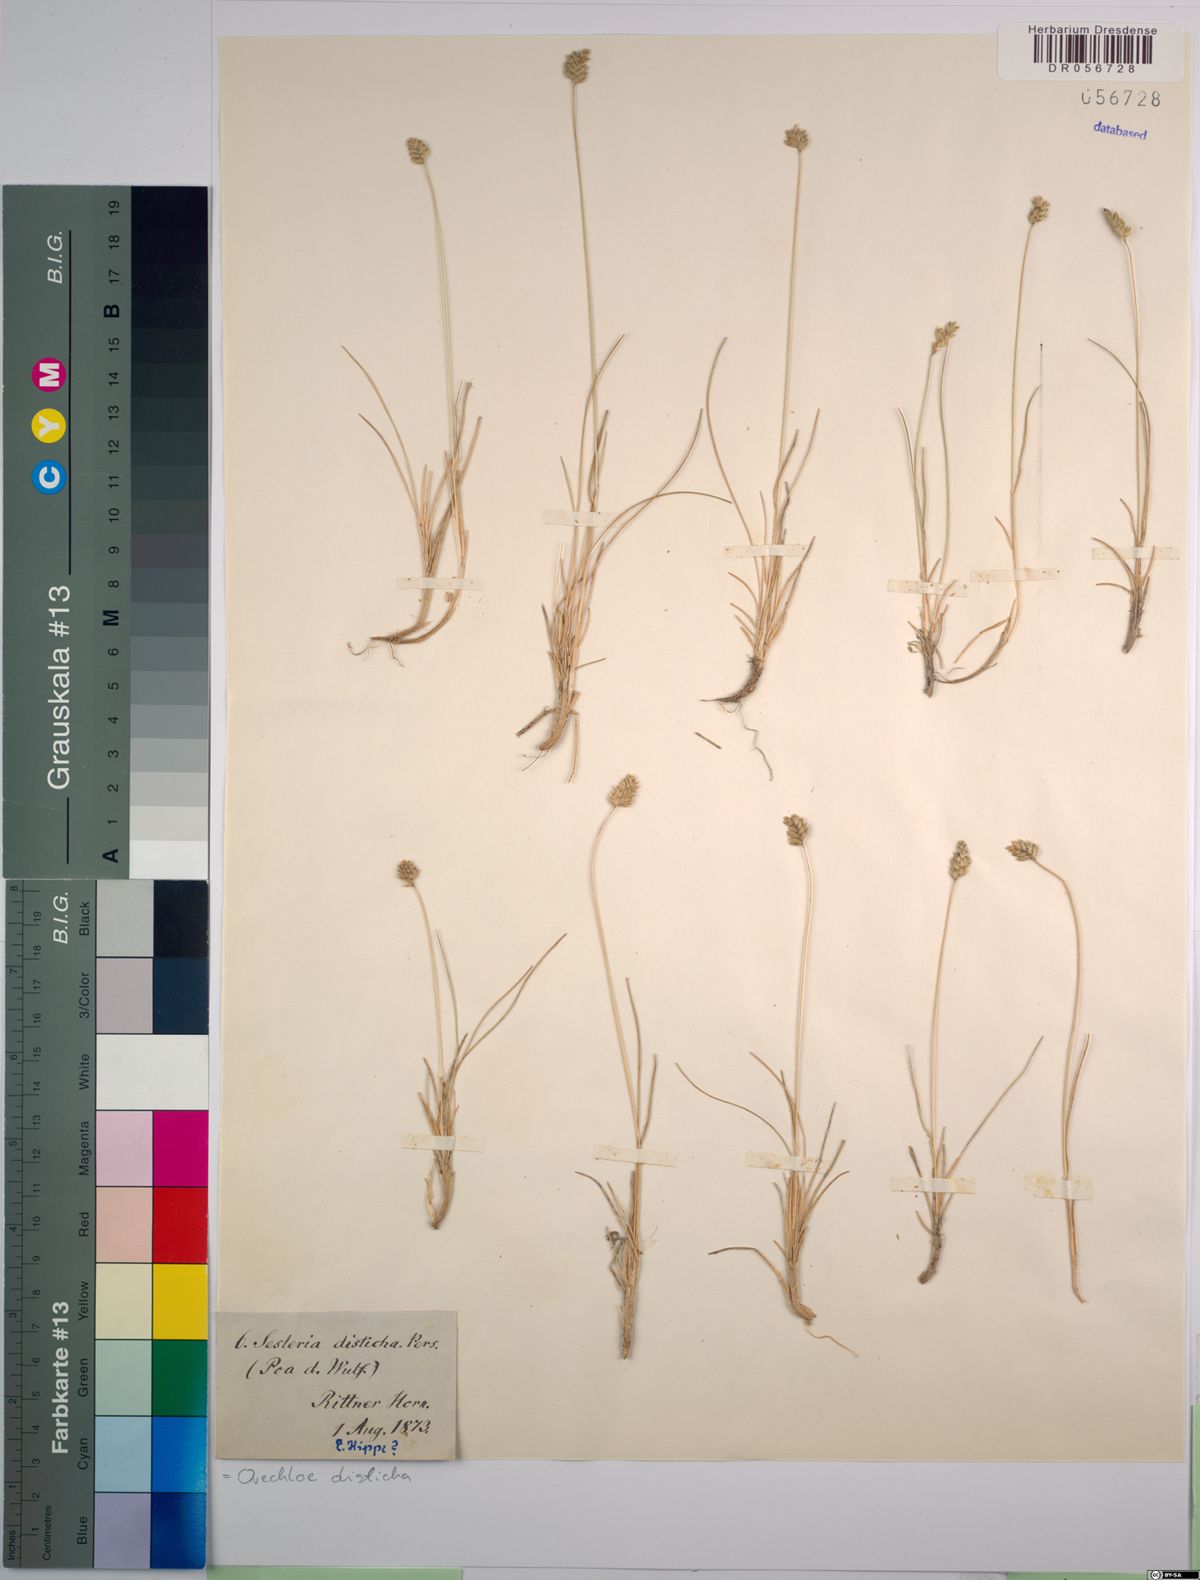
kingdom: Plantae
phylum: Tracheophyta
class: Liliopsida
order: Poales
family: Poaceae
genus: Oreochloa
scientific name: Oreochloa disticha
